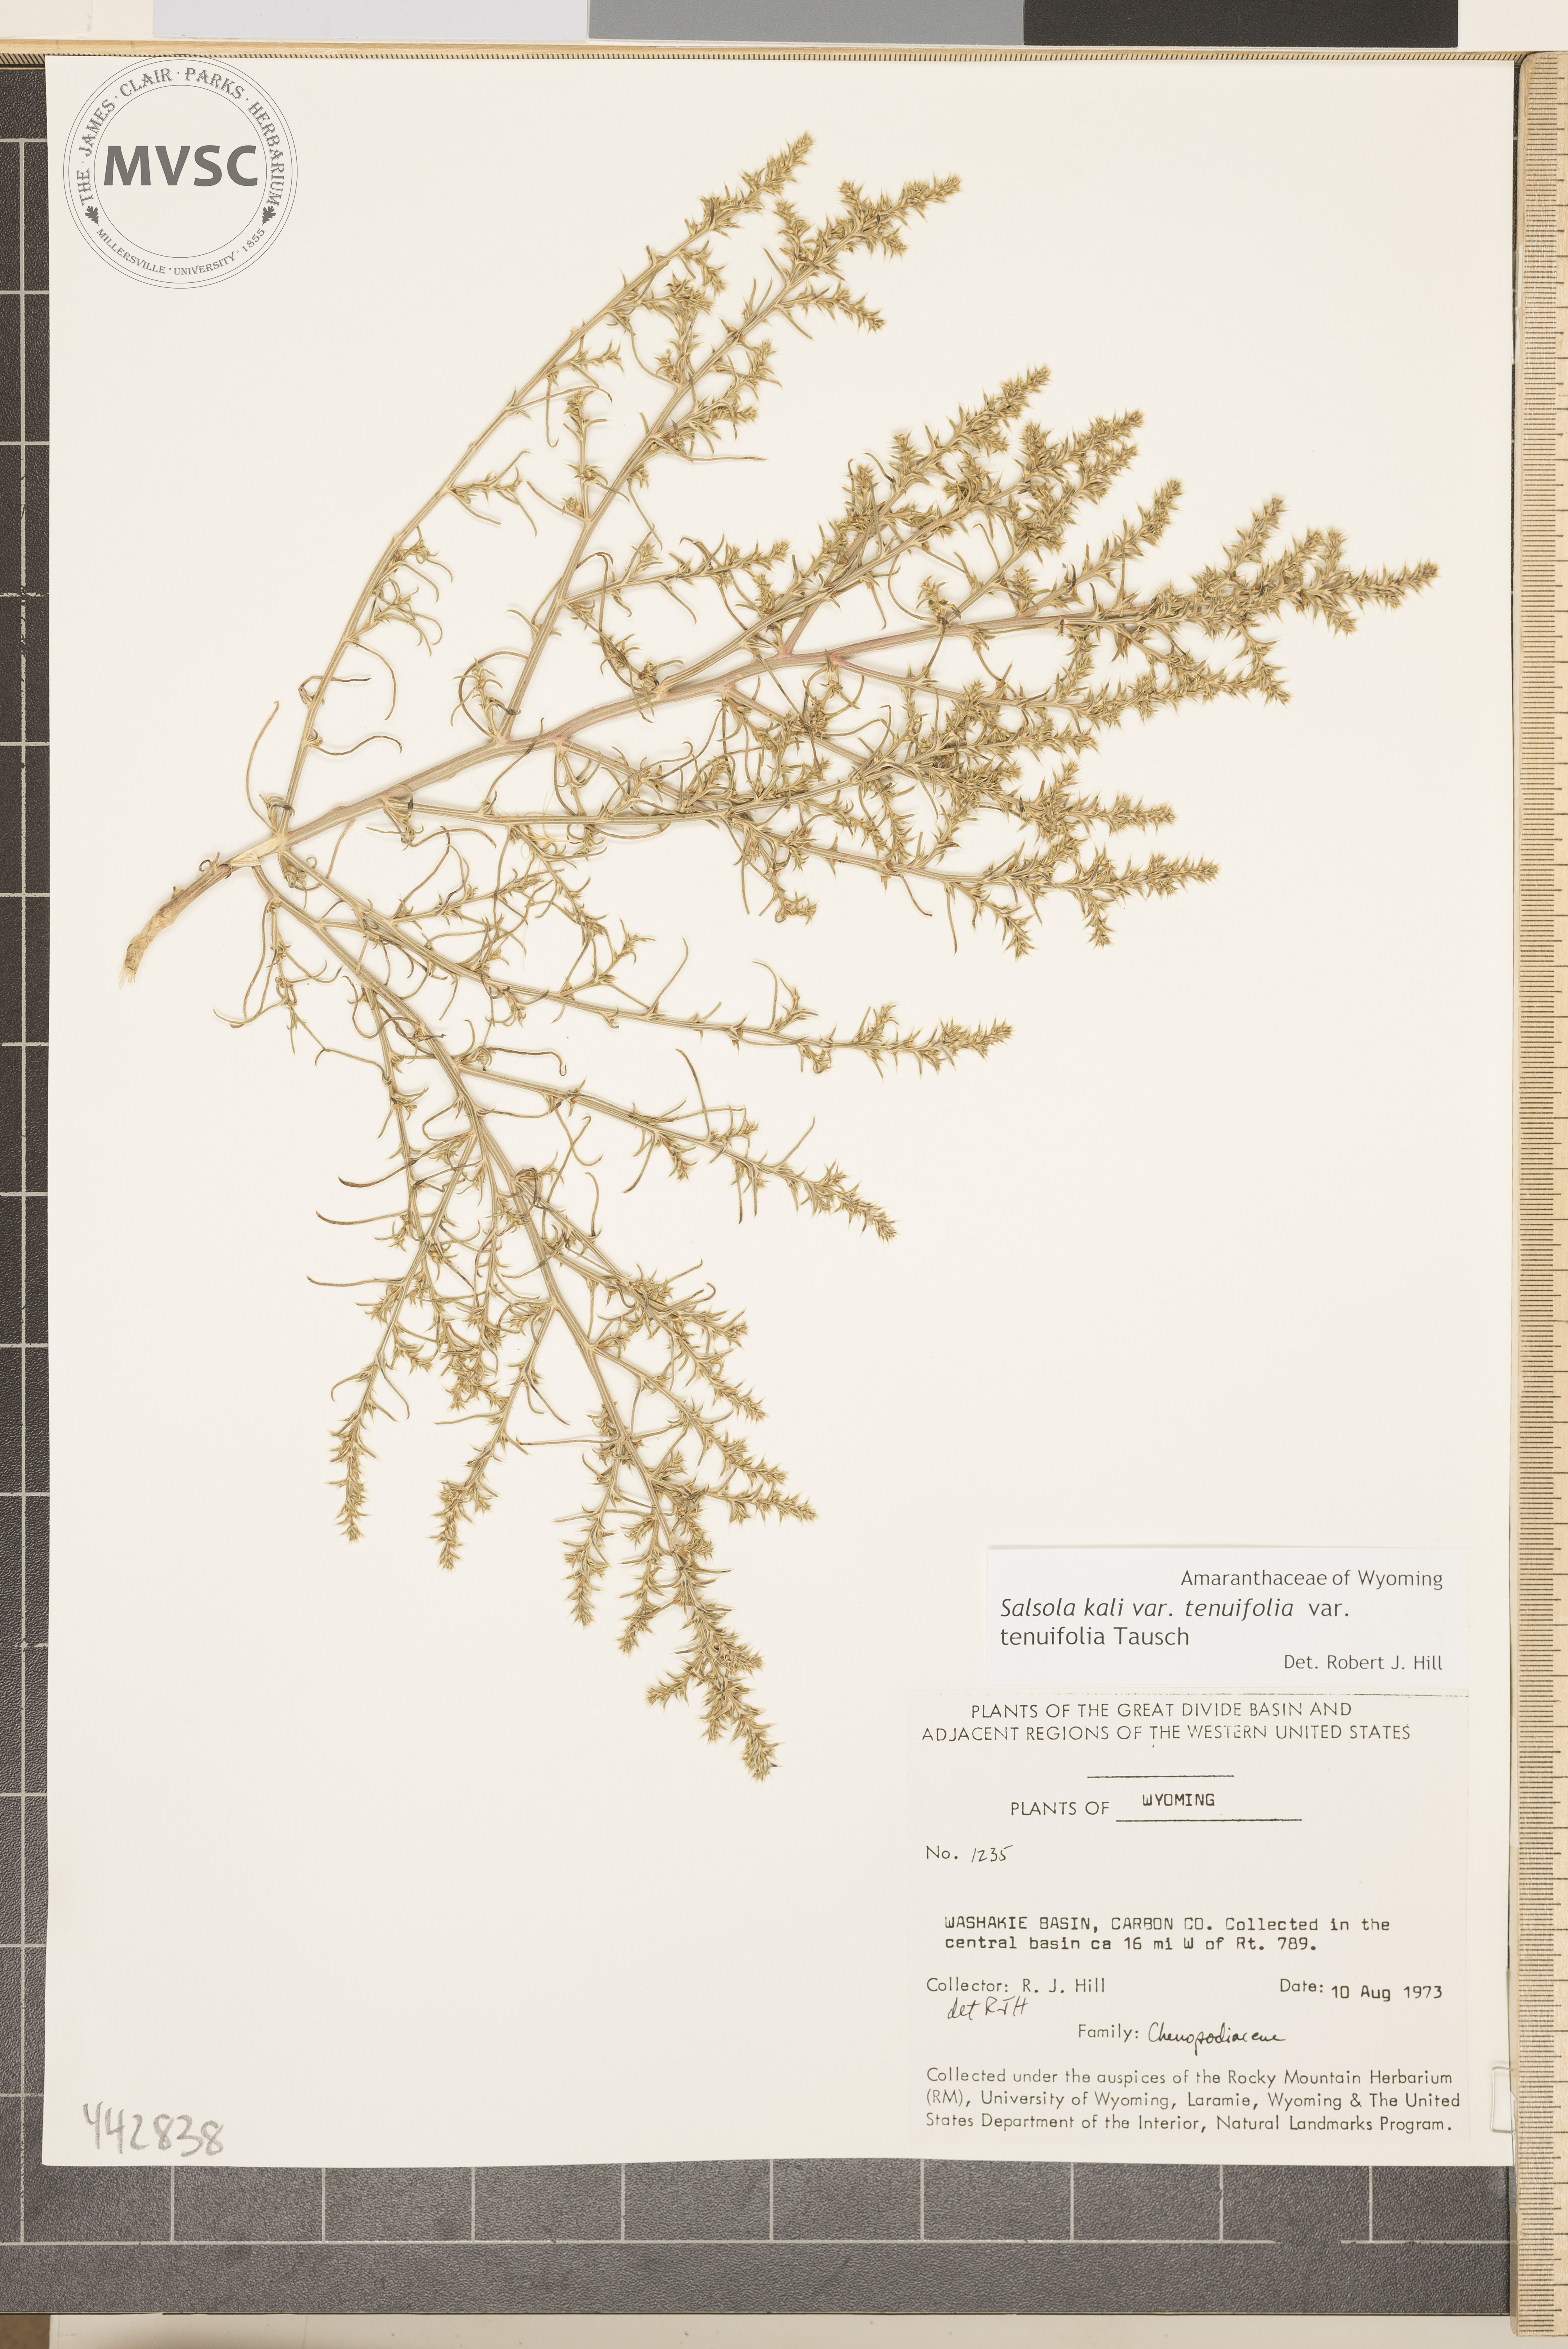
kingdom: Plantae
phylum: Tracheophyta
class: Magnoliopsida
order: Caryophyllales
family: Amaranthaceae
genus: Salsola
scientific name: Salsola kali
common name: Saltwort
